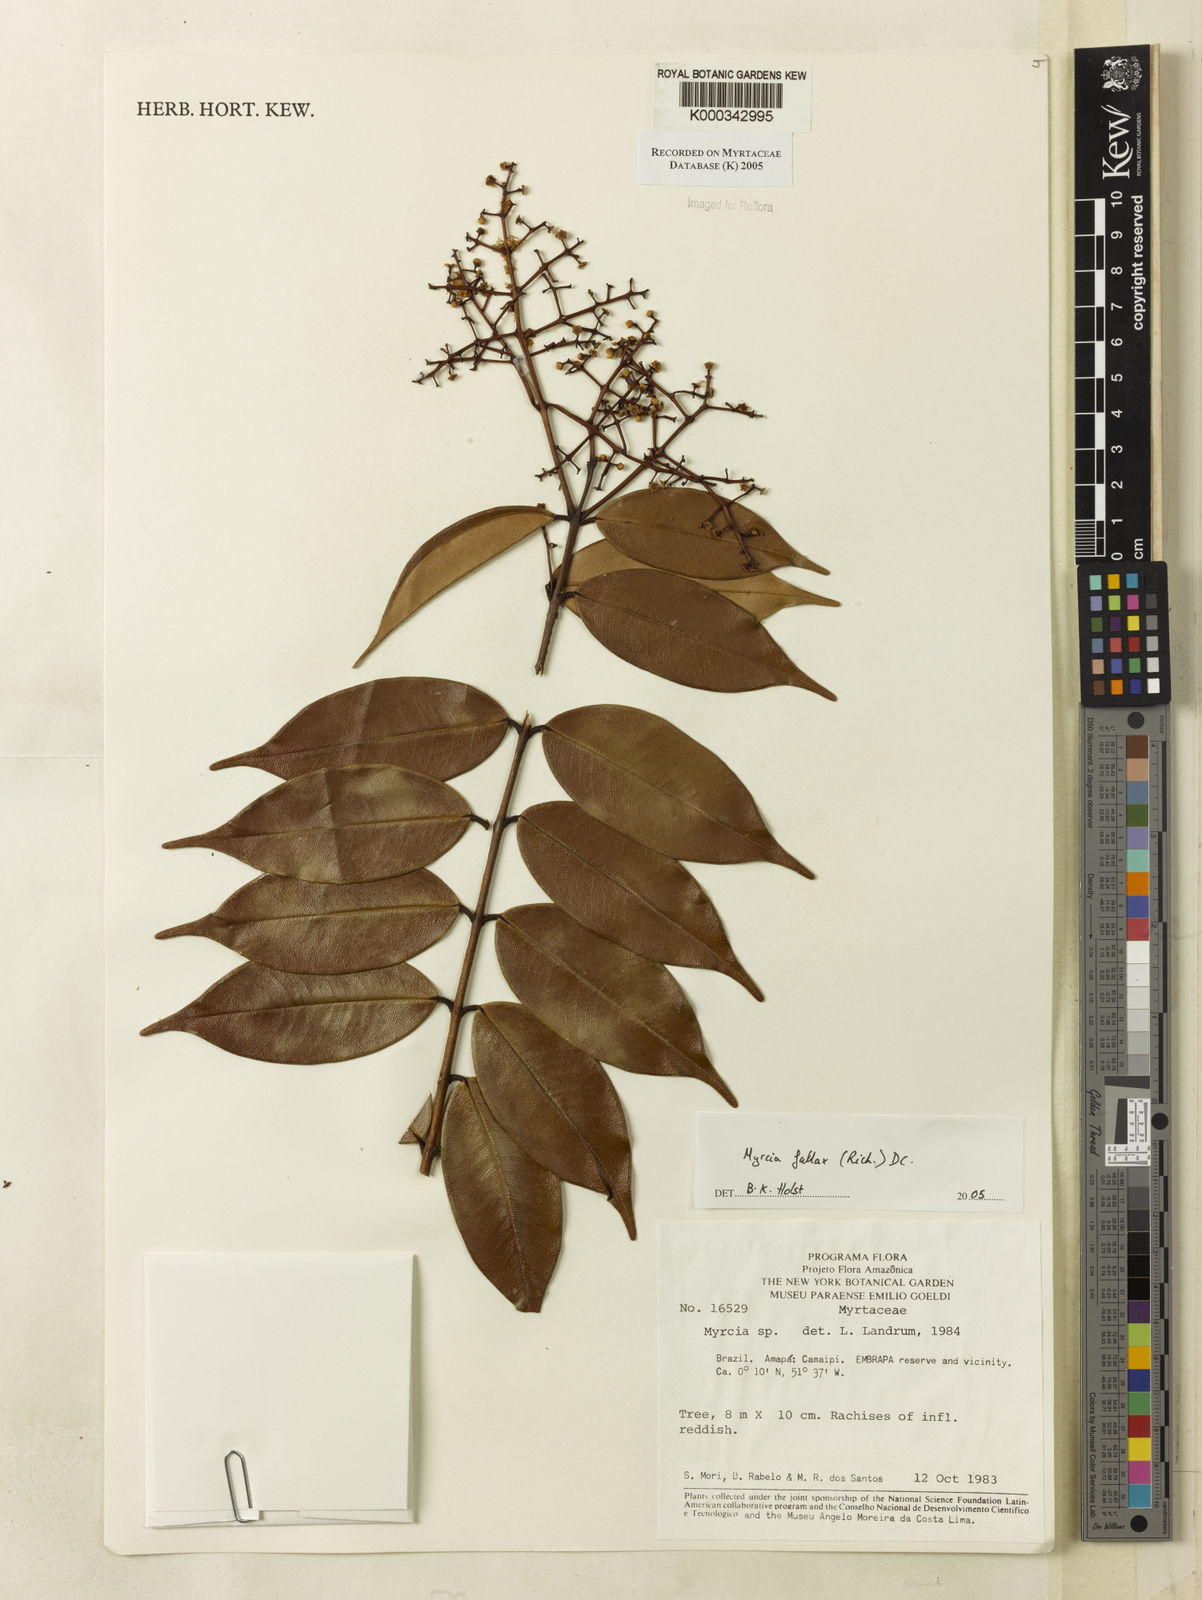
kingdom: Plantae
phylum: Tracheophyta
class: Magnoliopsida
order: Myrtales
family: Myrtaceae
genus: Myrcia
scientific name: Myrcia splendens
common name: Surinam cherry
